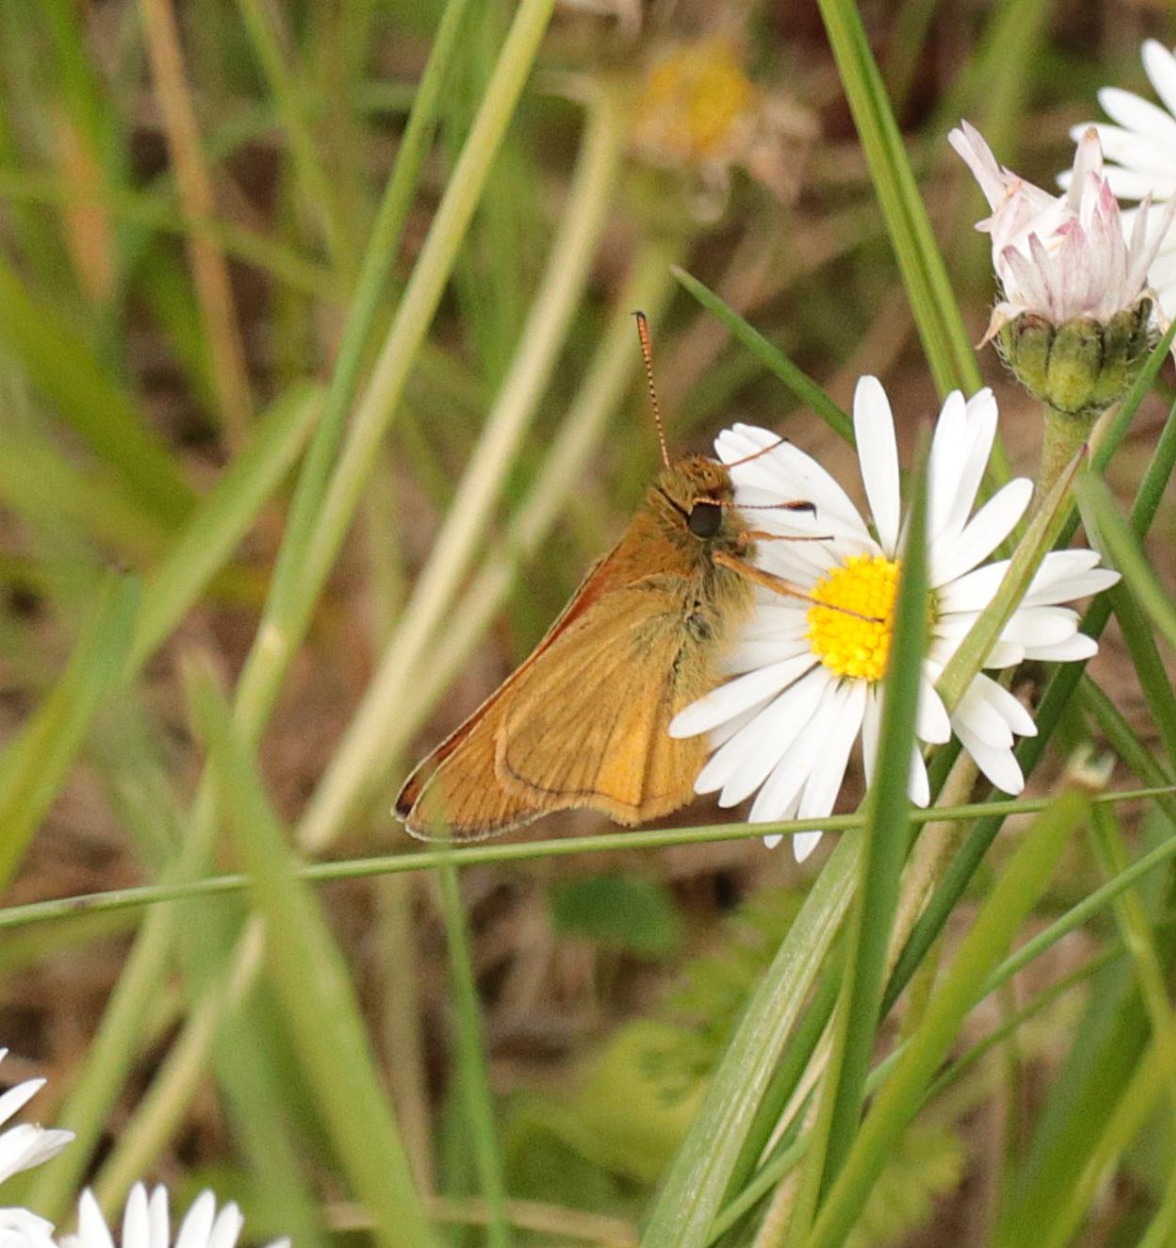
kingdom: Animalia
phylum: Arthropoda
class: Insecta
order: Lepidoptera
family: Hesperiidae
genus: Ochlodes
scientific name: Ochlodes venata
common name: Stor bredpande
